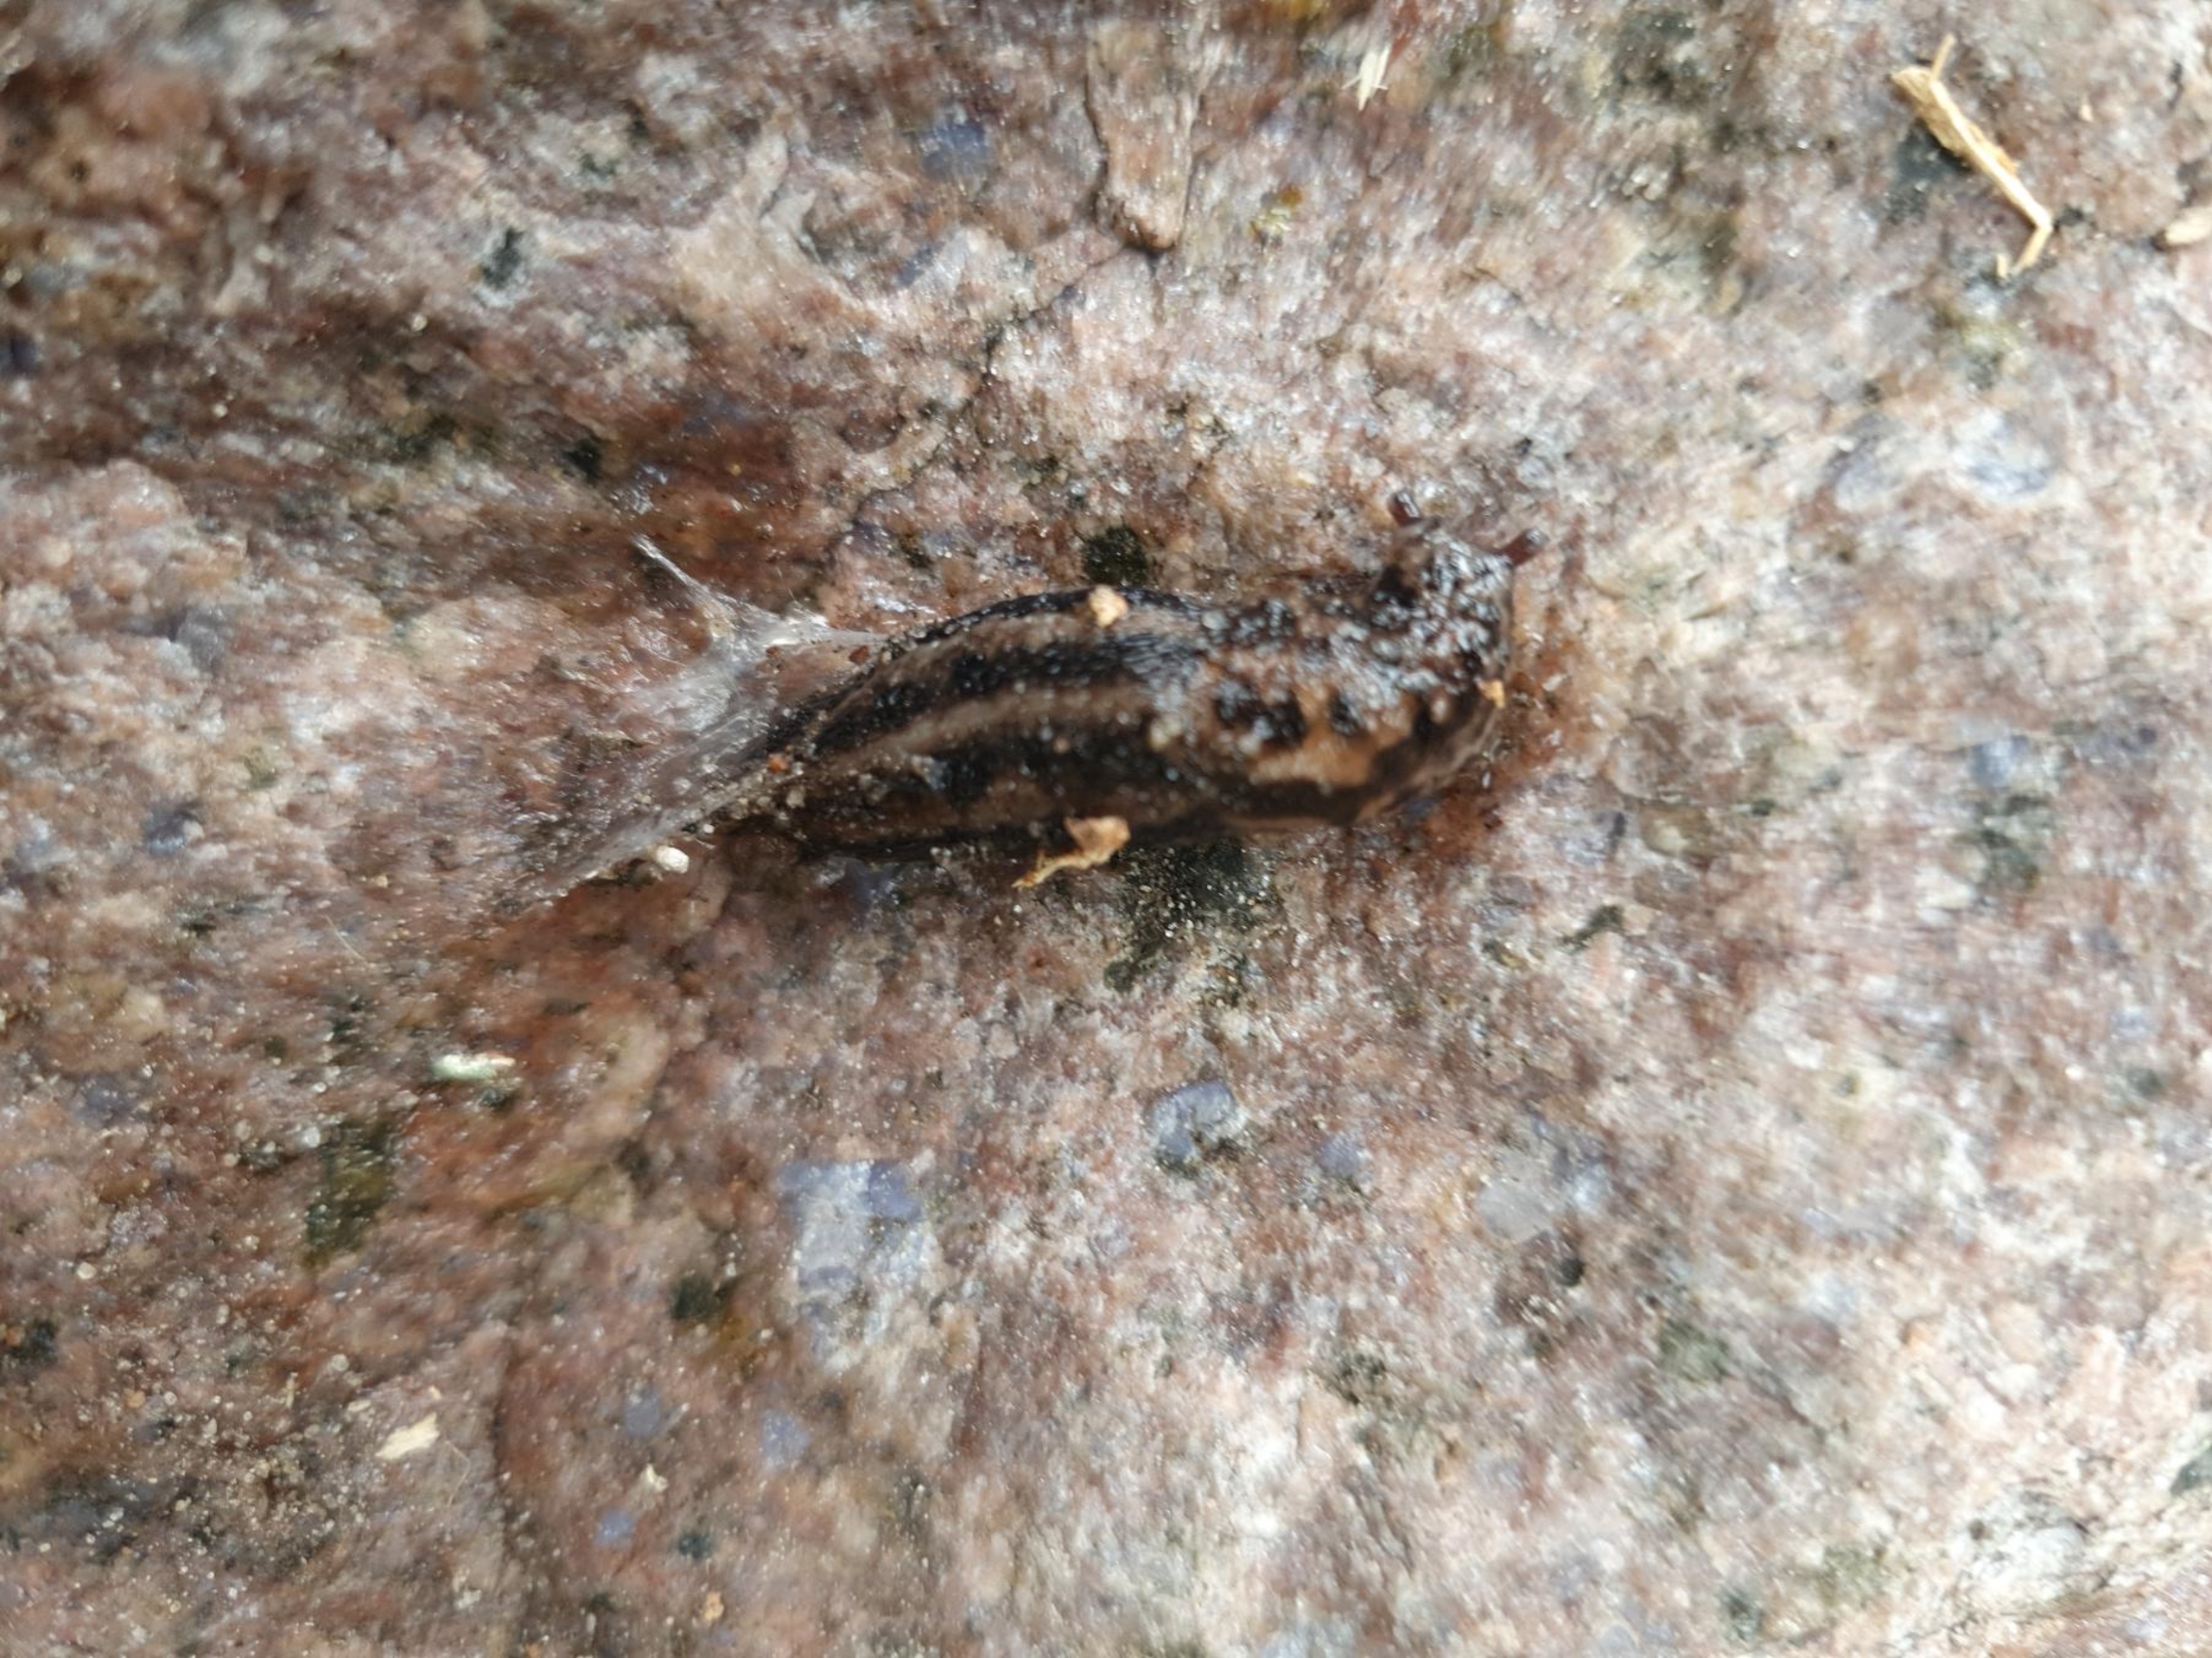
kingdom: Animalia
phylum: Mollusca
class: Gastropoda
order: Stylommatophora
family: Limacidae
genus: Limax
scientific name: Limax maximus
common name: Pantersnegl
